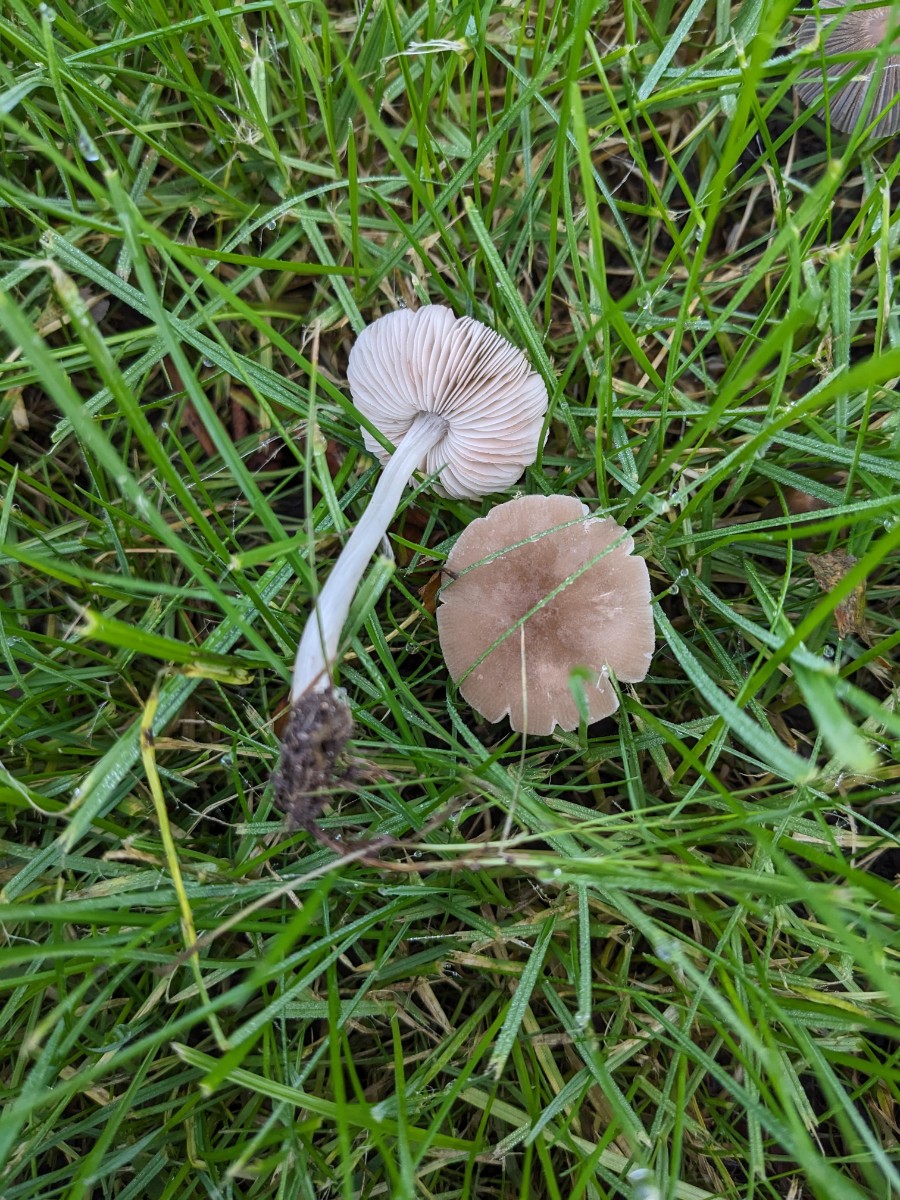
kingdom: Fungi
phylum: Basidiomycota
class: Agaricomycetes
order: Agaricales
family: Pluteaceae
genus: Pluteus
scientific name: Pluteus
